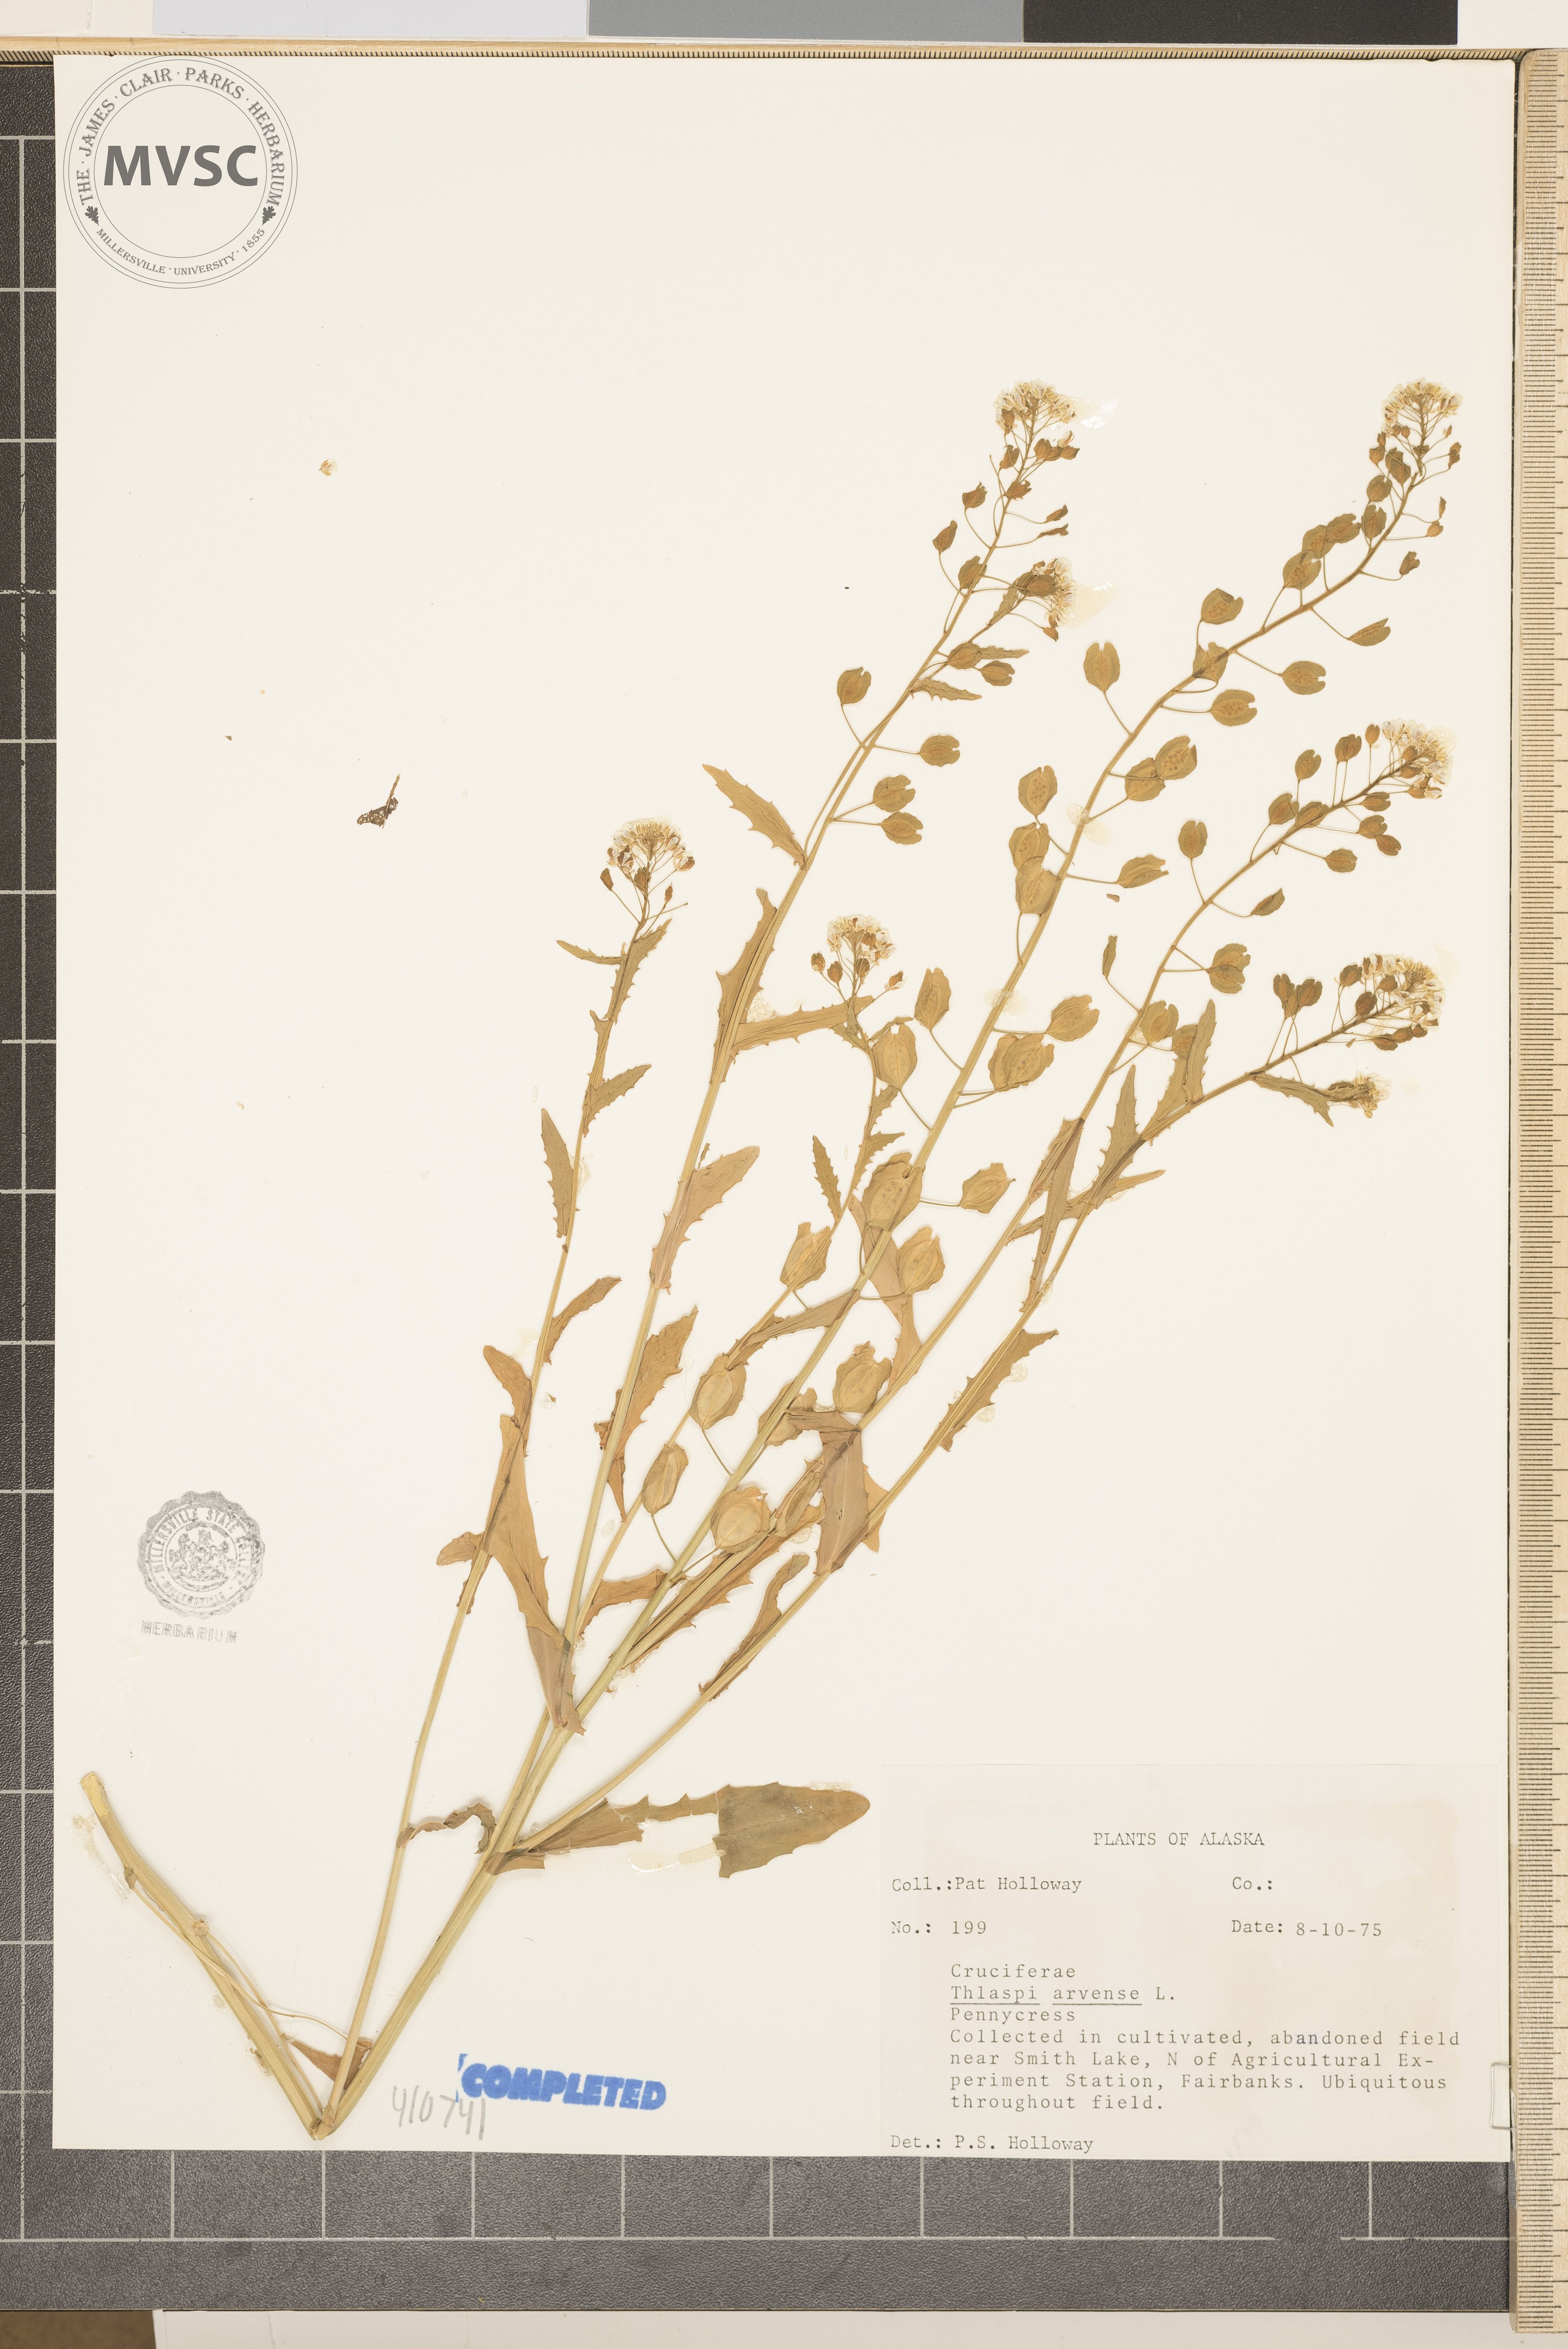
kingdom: Plantae
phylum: Tracheophyta
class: Magnoliopsida
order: Brassicales
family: Brassicaceae
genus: Thlaspi
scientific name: Thlaspi arvense
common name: Field Pennycress
